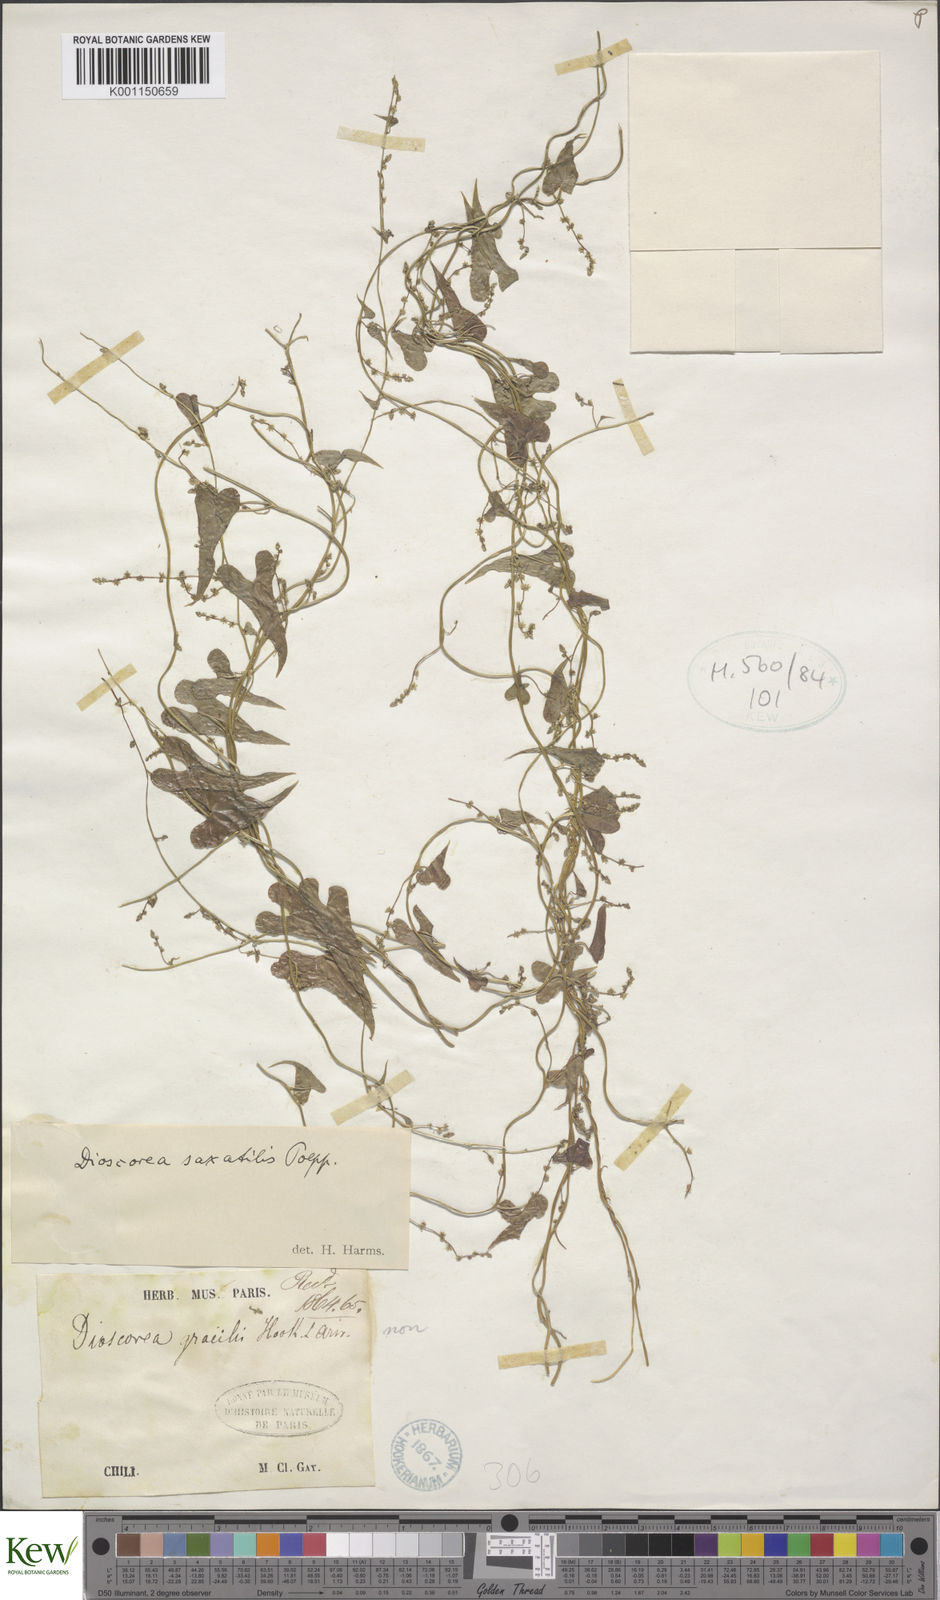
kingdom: Plantae
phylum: Tracheophyta
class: Liliopsida
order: Dioscoreales
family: Dioscoreaceae
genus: Dioscorea
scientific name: Dioscorea saxatilis
